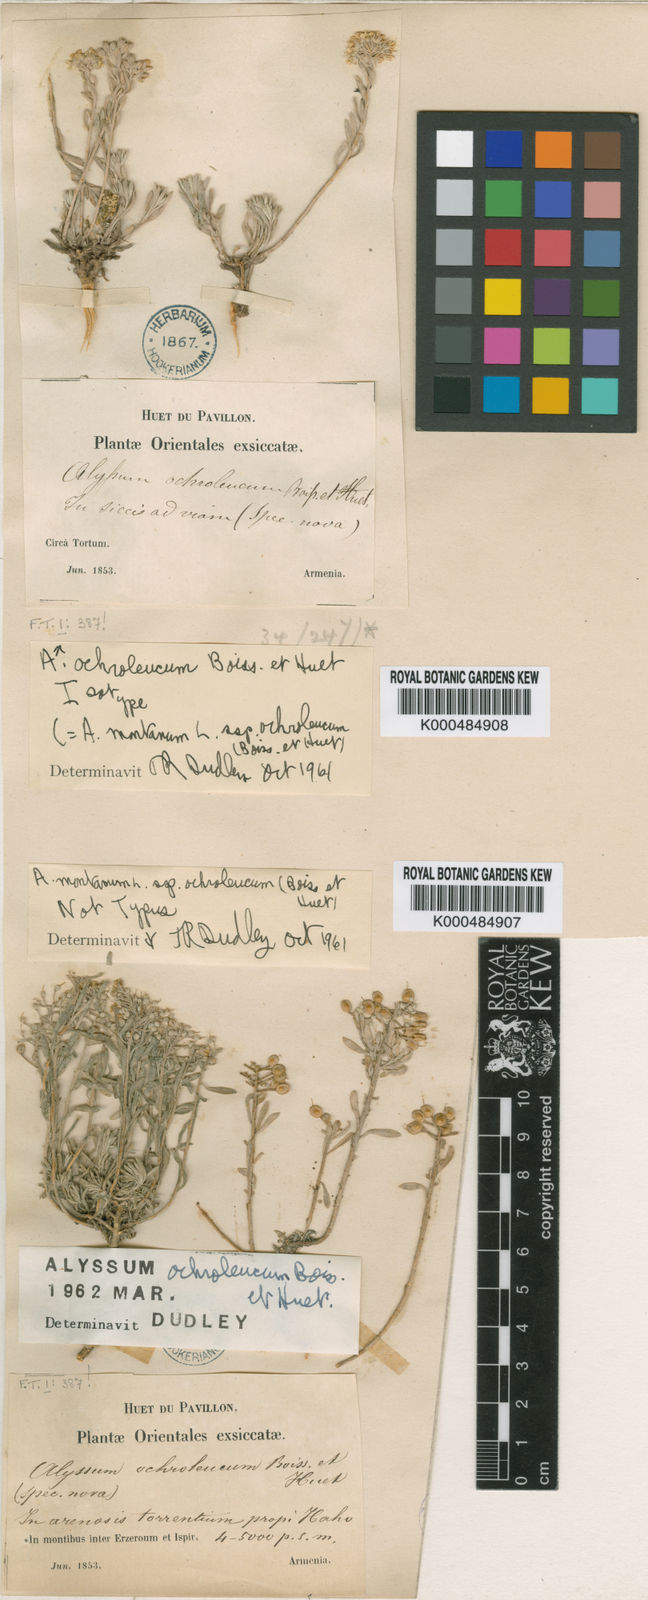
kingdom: Plantae
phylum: Tracheophyta
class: Magnoliopsida
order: Brassicales
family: Brassicaceae
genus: Alyssum
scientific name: Alyssum ochroleucum
